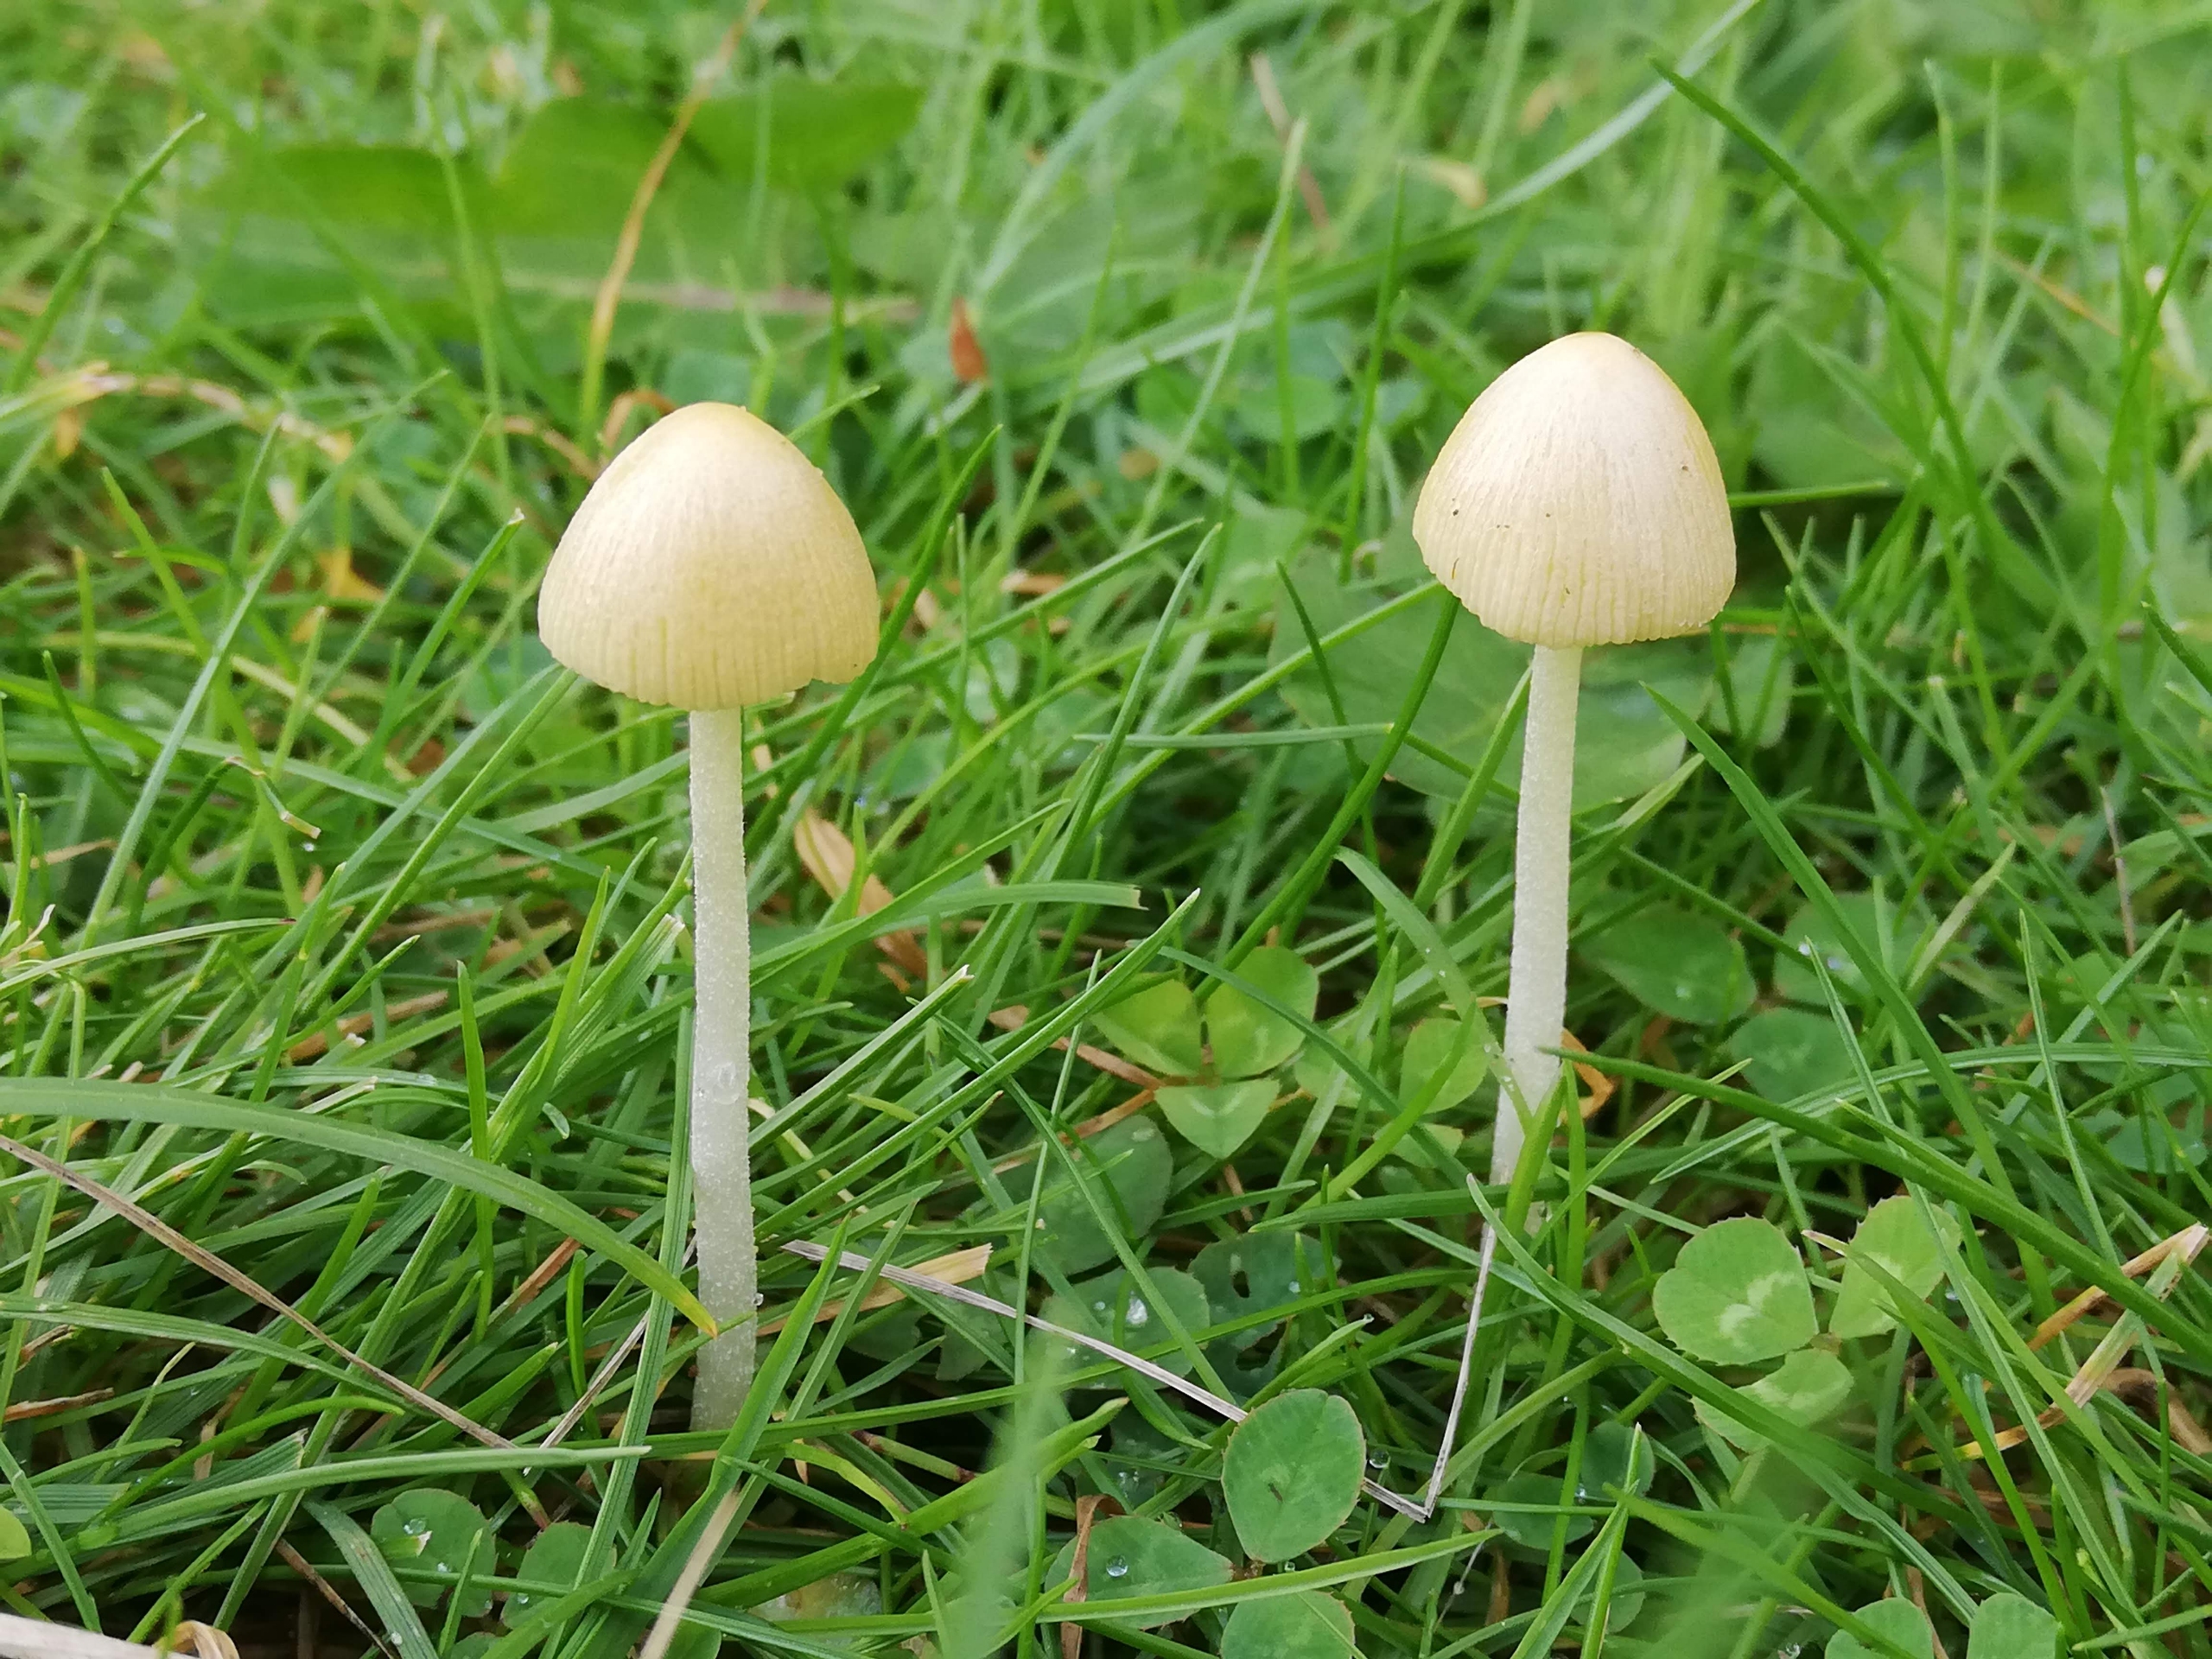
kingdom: Fungi
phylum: Basidiomycota
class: Agaricomycetes
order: Agaricales
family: Bolbitiaceae
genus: Bolbitius
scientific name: Bolbitius titubans
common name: Almindelig gulhat
